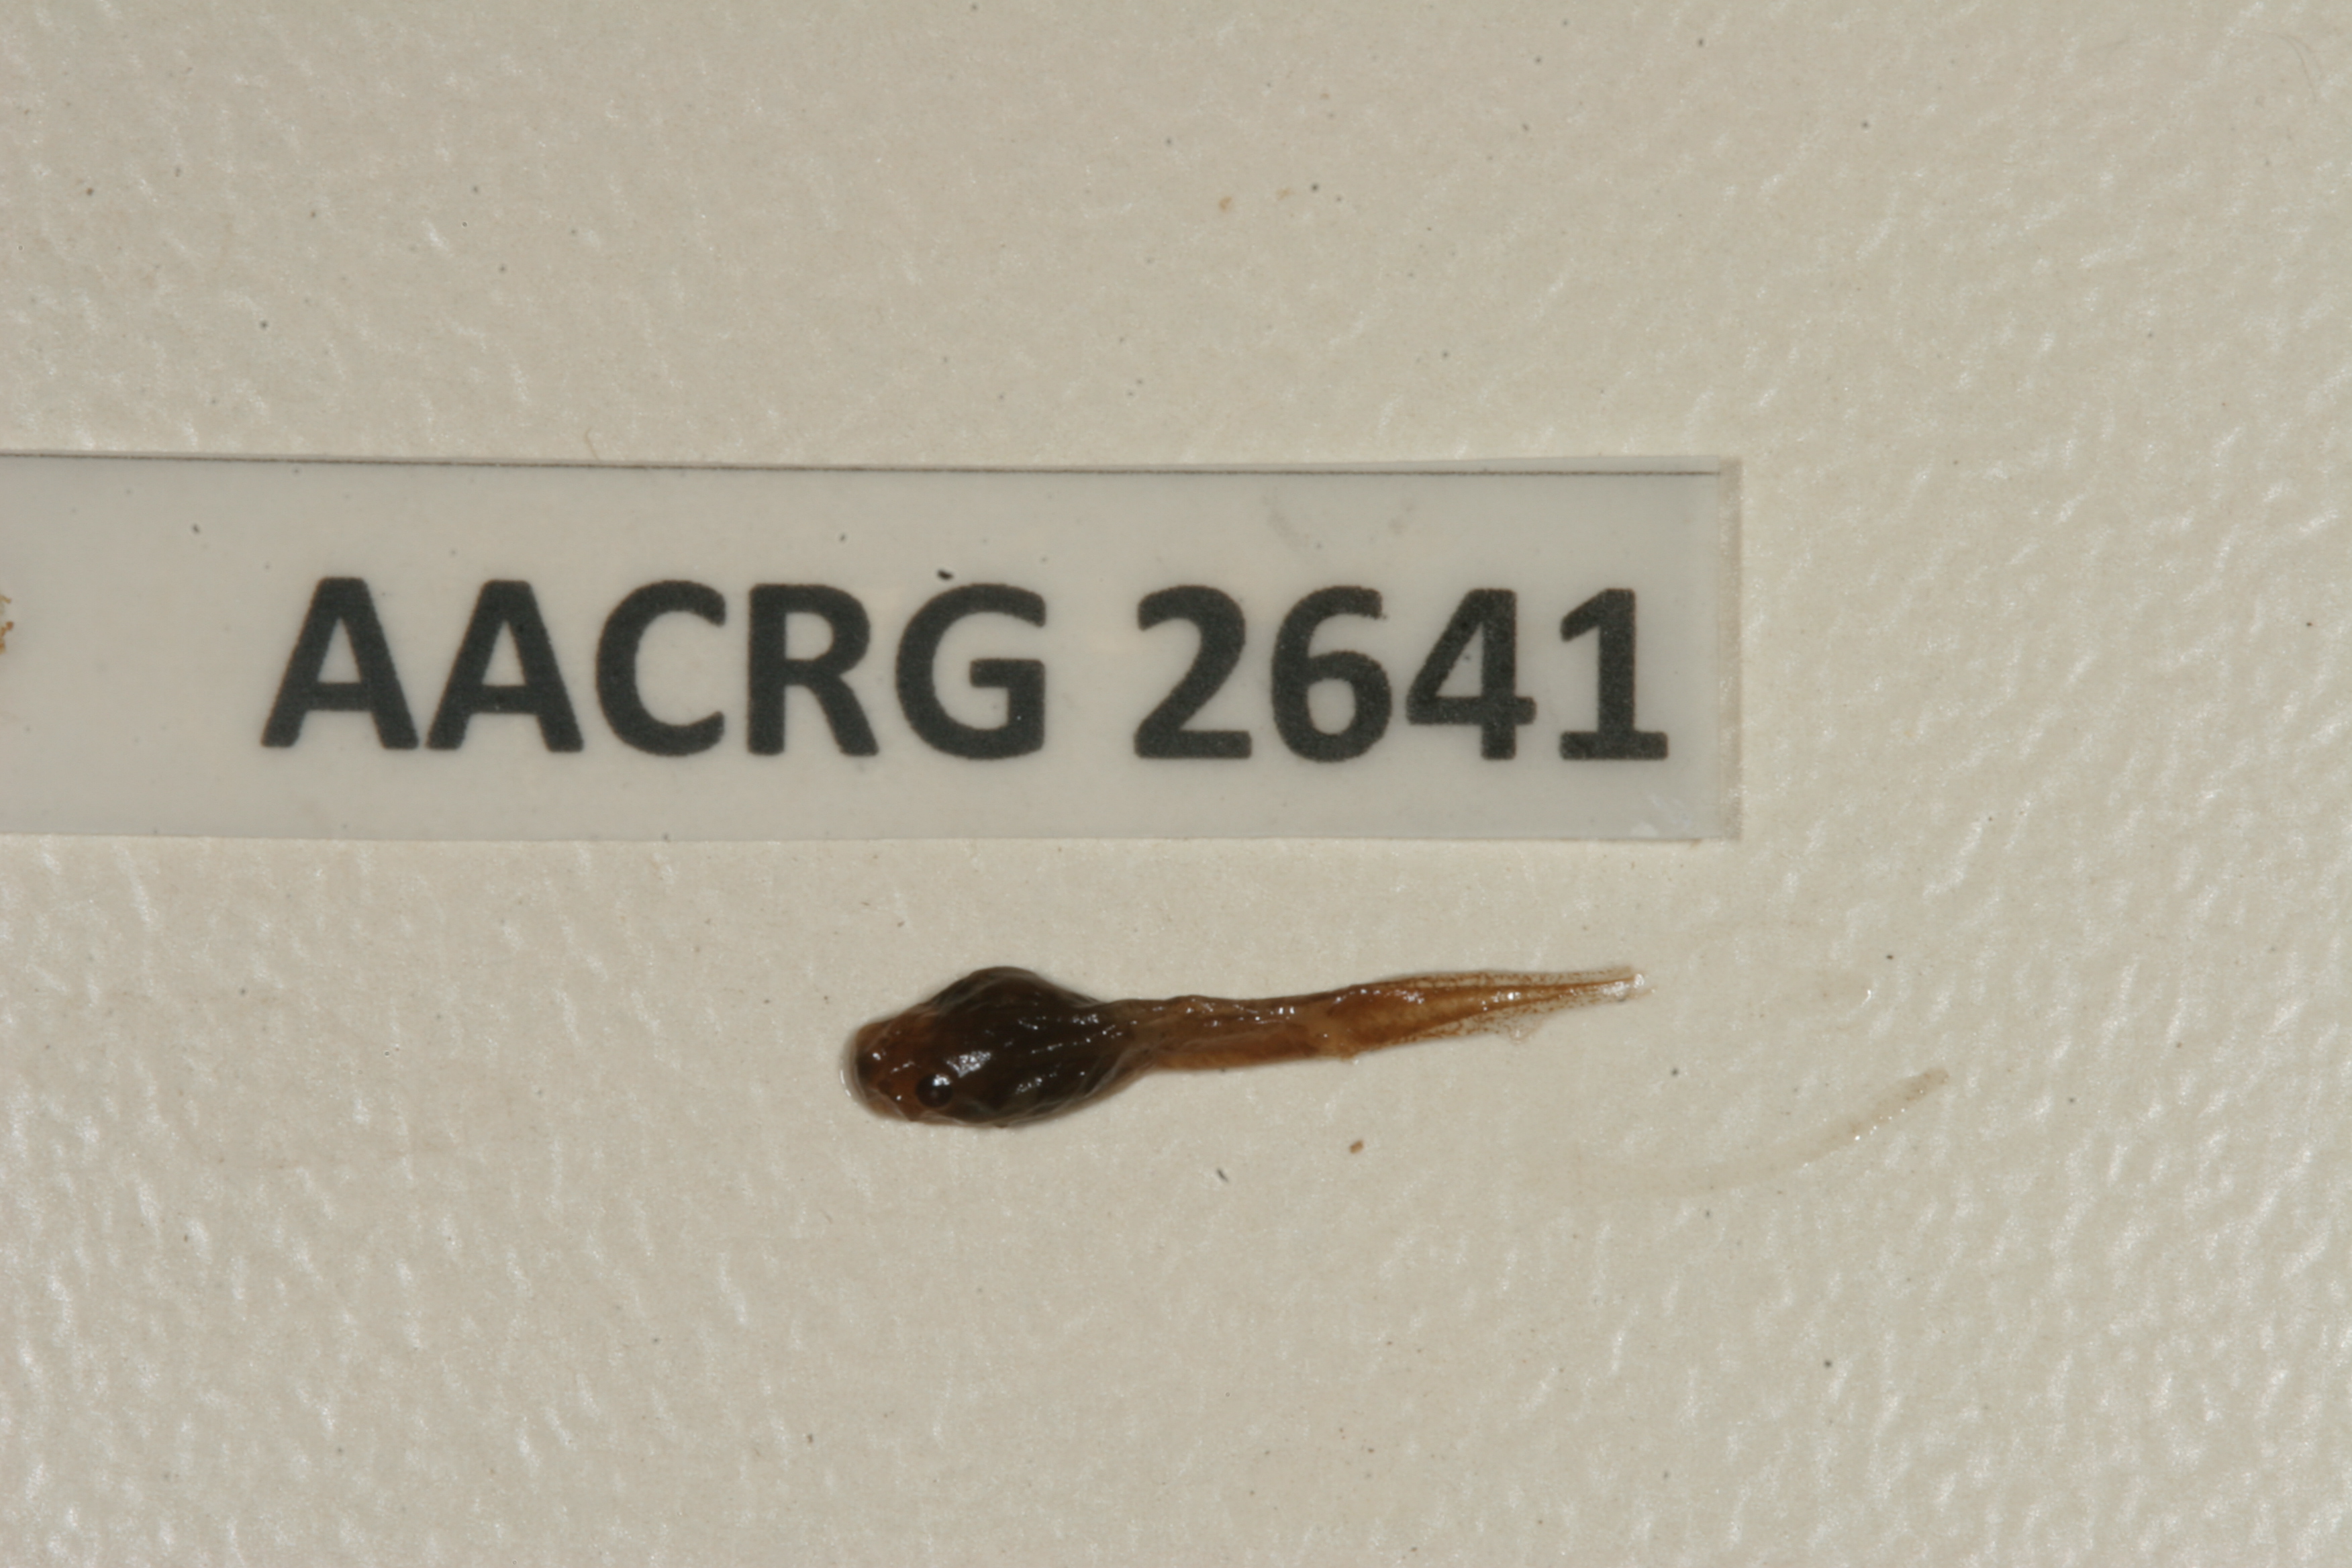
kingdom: Animalia
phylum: Chordata
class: Amphibia
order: Anura
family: Pyxicephalidae
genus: Amietia
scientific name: Amietia fuscigula
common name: Cape rana
